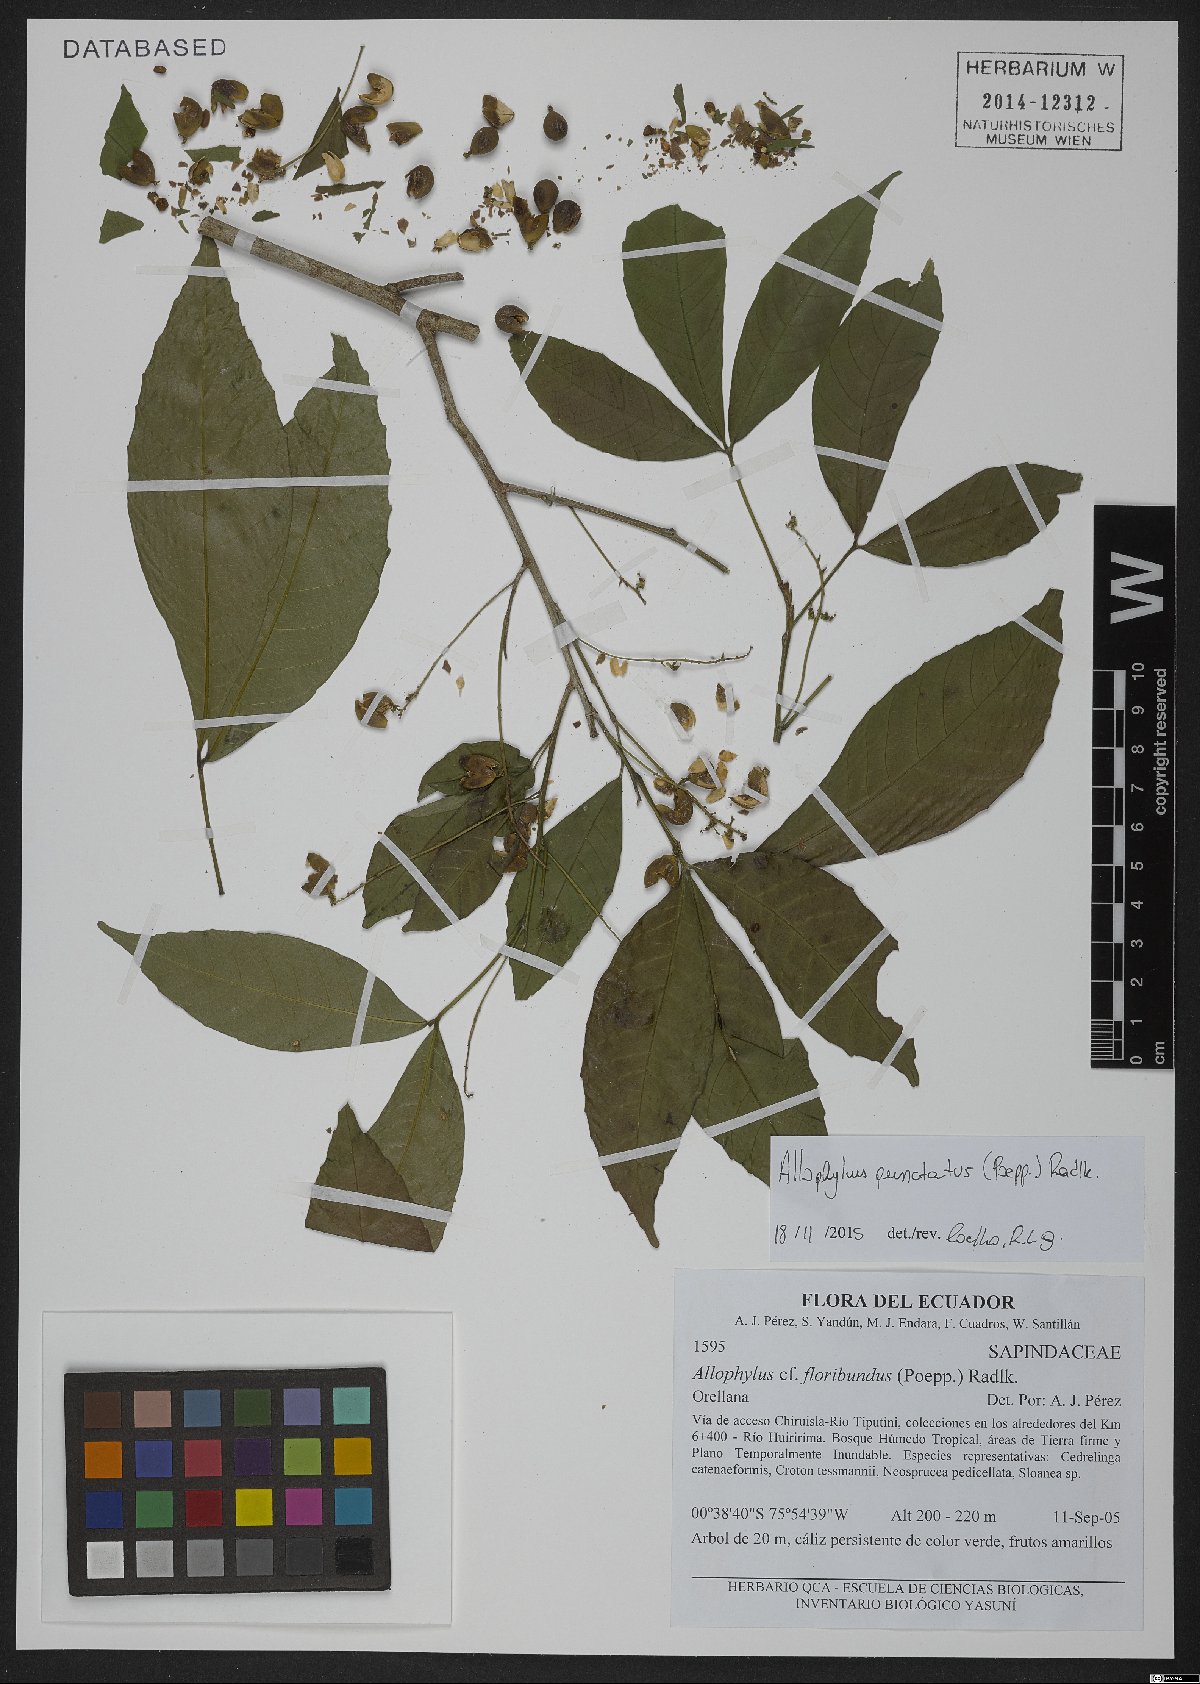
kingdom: Plantae
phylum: Tracheophyta
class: Magnoliopsida
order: Sapindales
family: Sapindaceae
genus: Allophylus
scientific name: Allophylus punctatus
